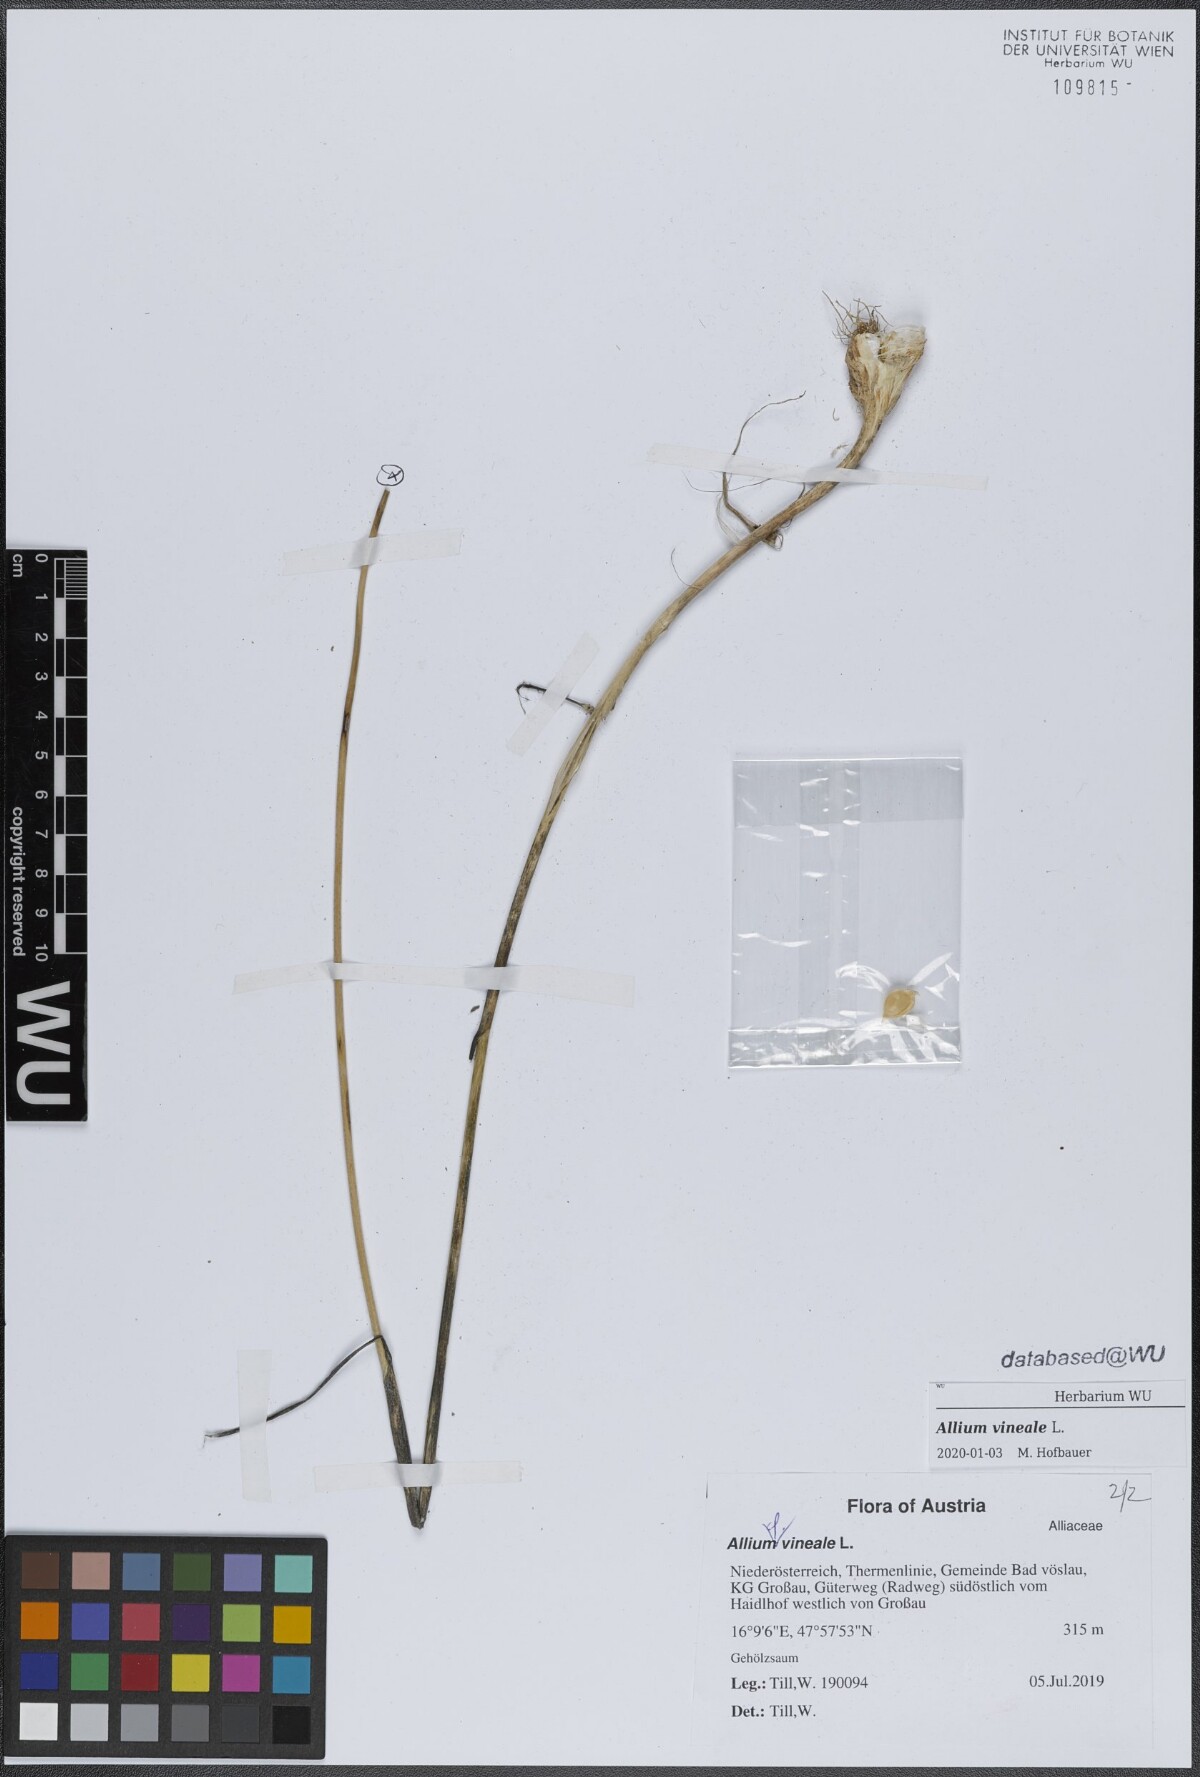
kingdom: Plantae
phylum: Tracheophyta
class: Liliopsida
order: Asparagales
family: Amaryllidaceae
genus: Allium
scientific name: Allium vineale
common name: Crow garlic
